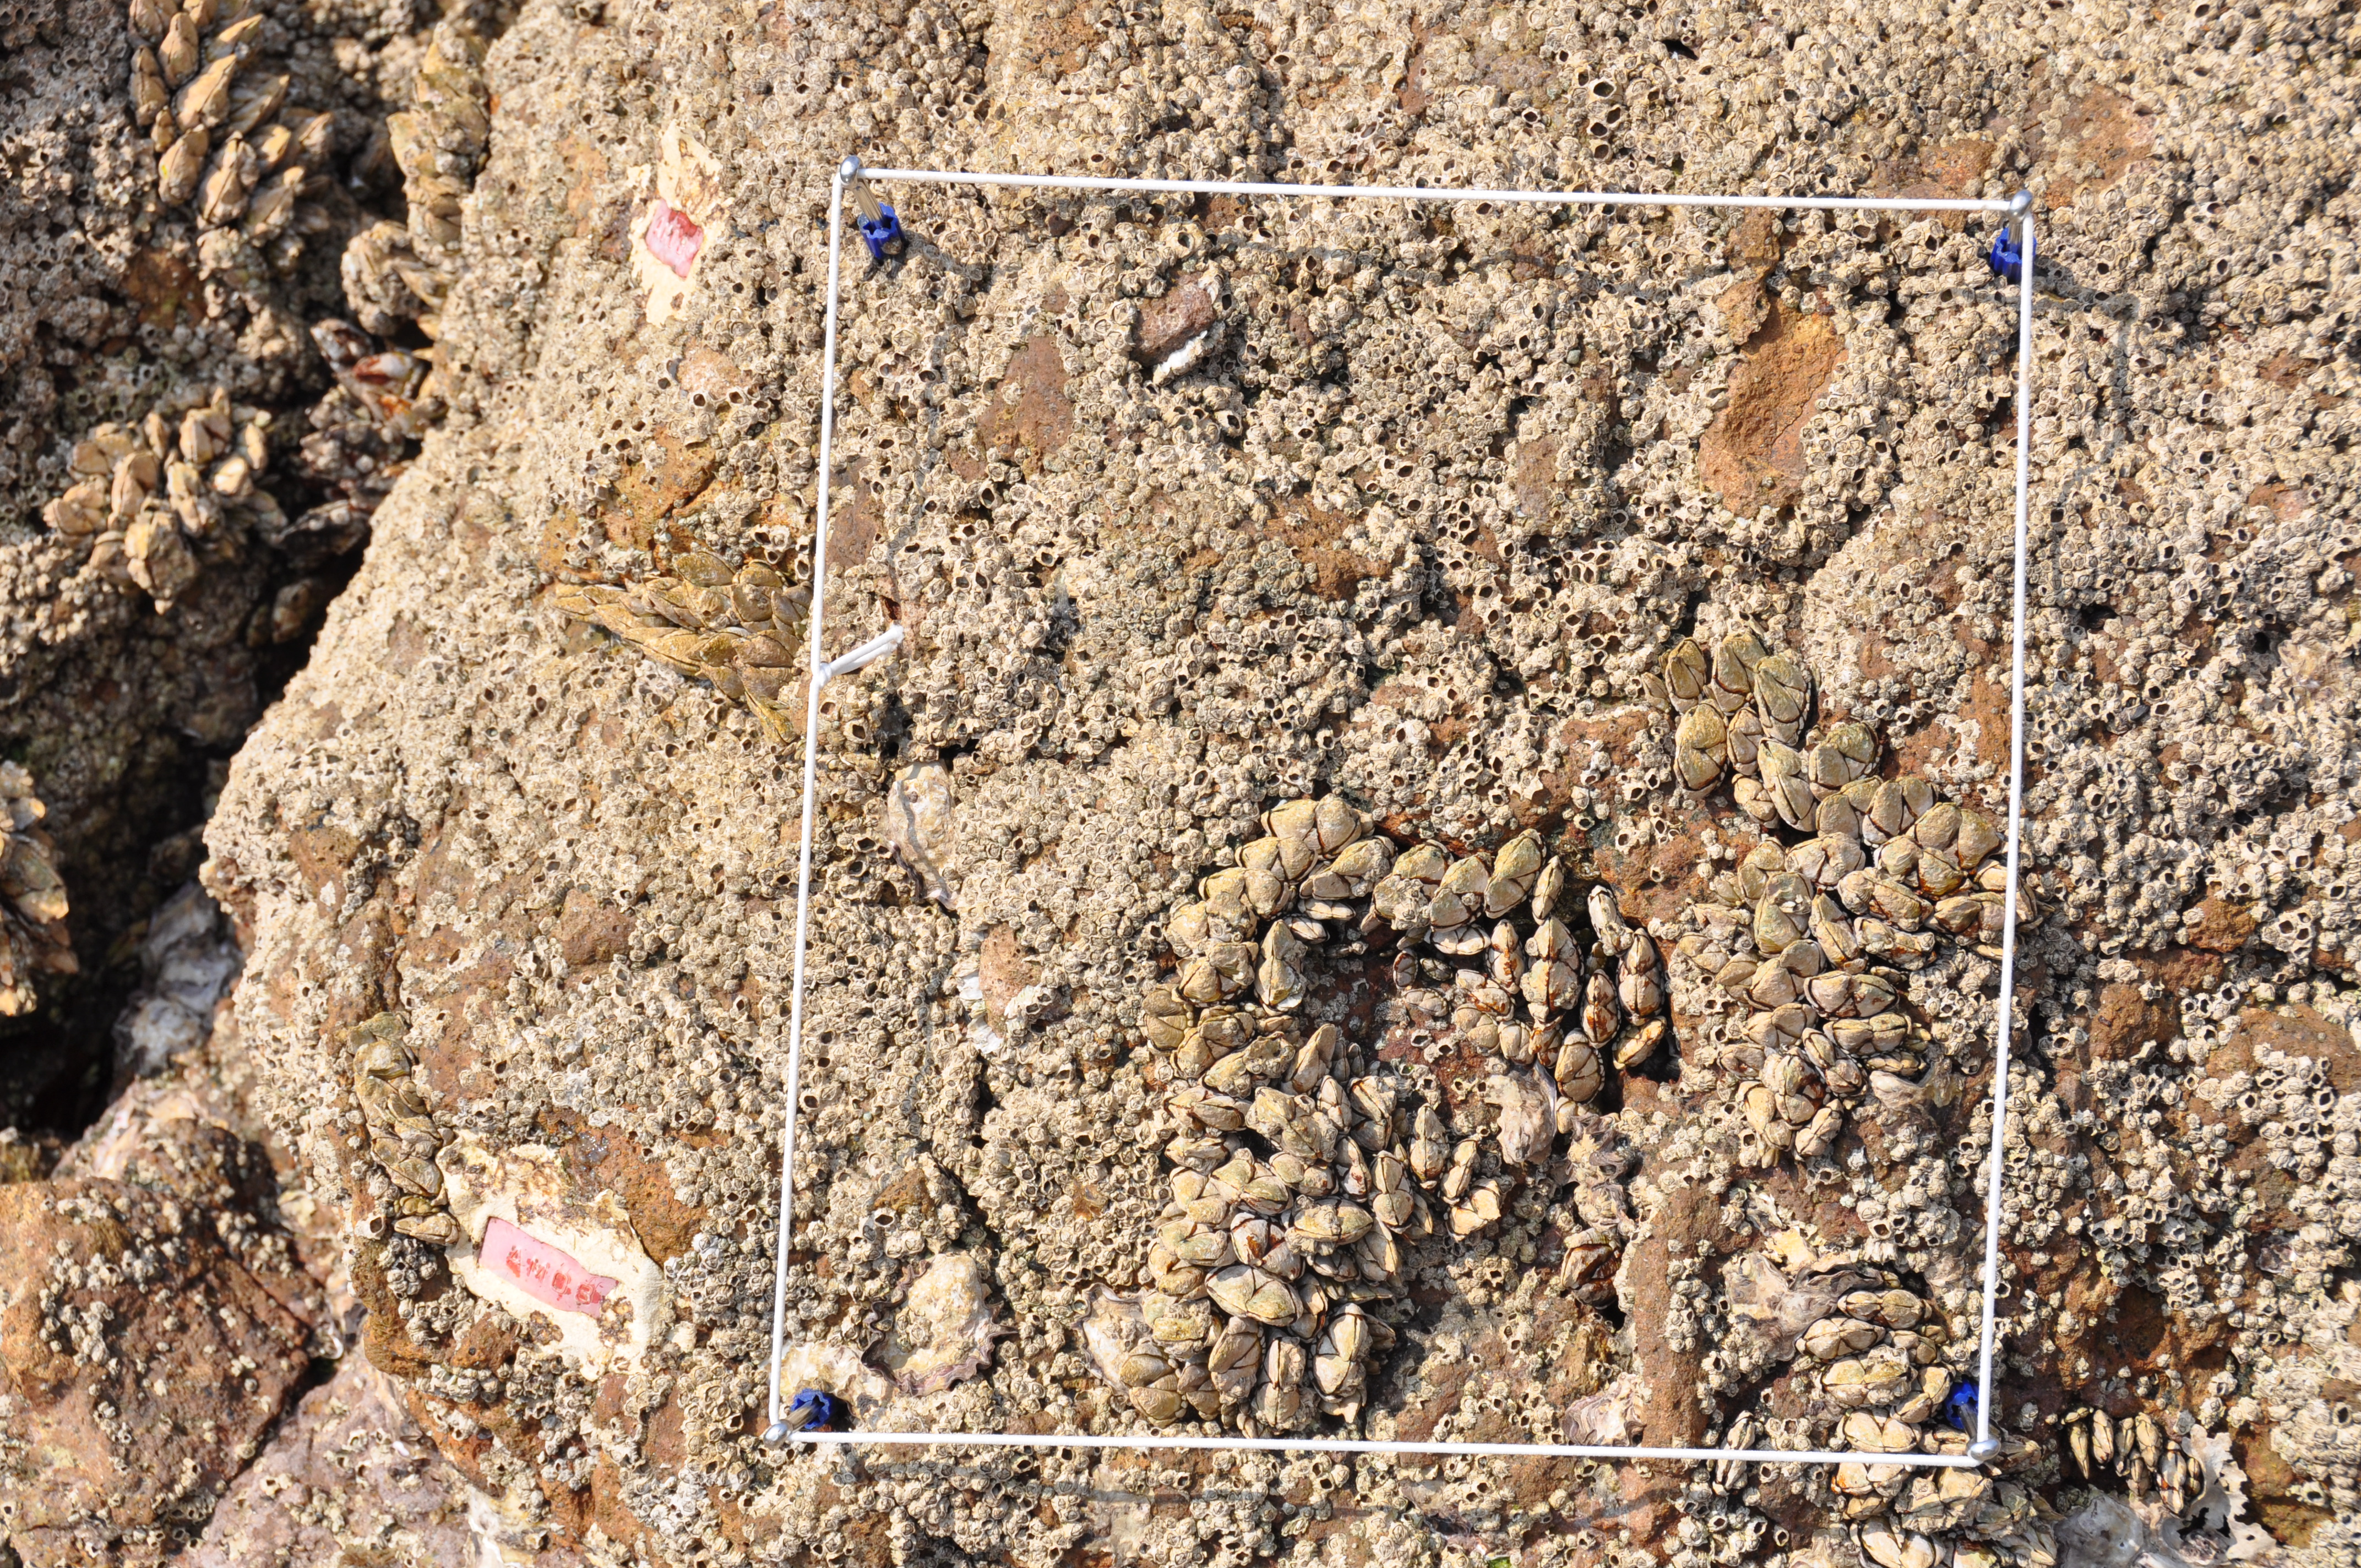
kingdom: Animalia
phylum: Arthropoda
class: Maxillopoda
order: Sessilia
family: Chthamalidae
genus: Chthamalus
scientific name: Chthamalus challengeri
